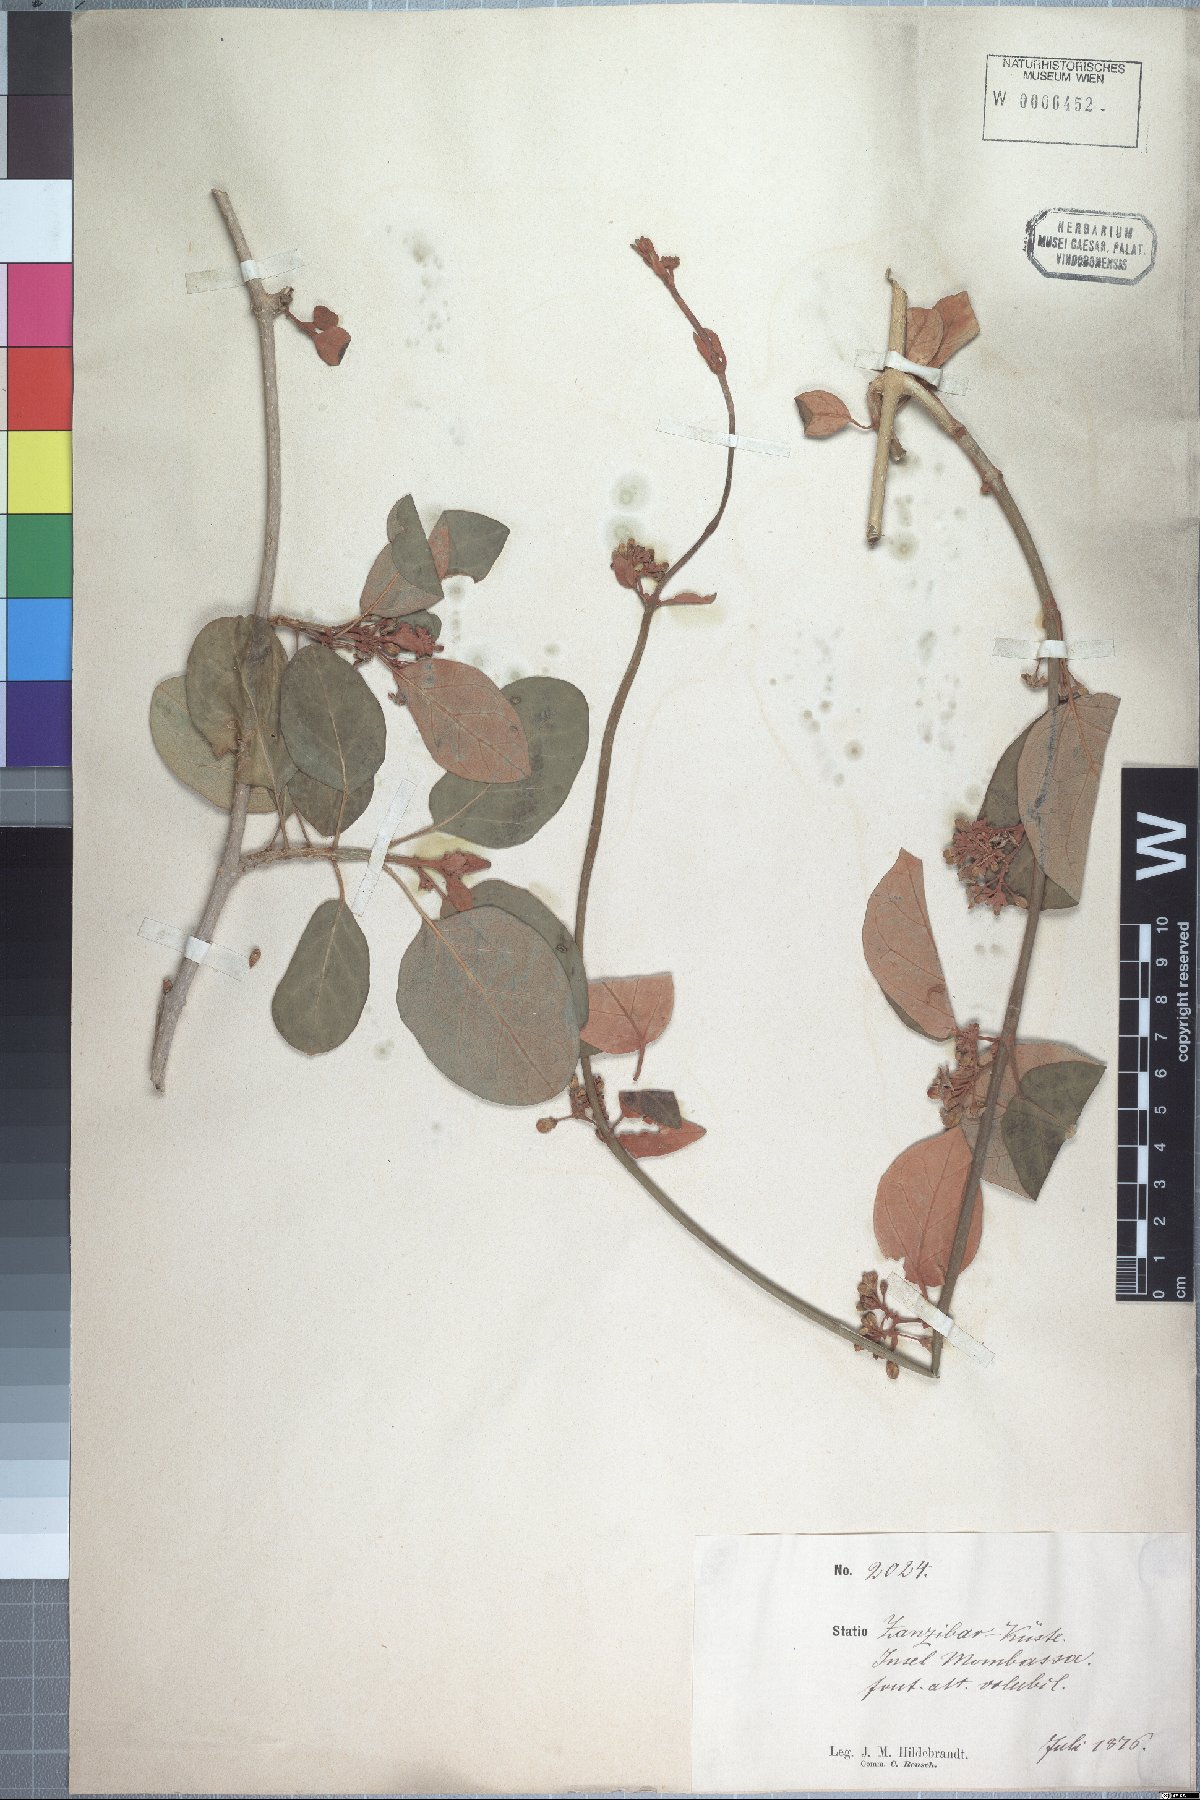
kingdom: Plantae
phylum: Tracheophyta
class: Magnoliopsida
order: Gentianales
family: Apocynaceae
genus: Stephanotis
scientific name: Stephanotis rubicunda
